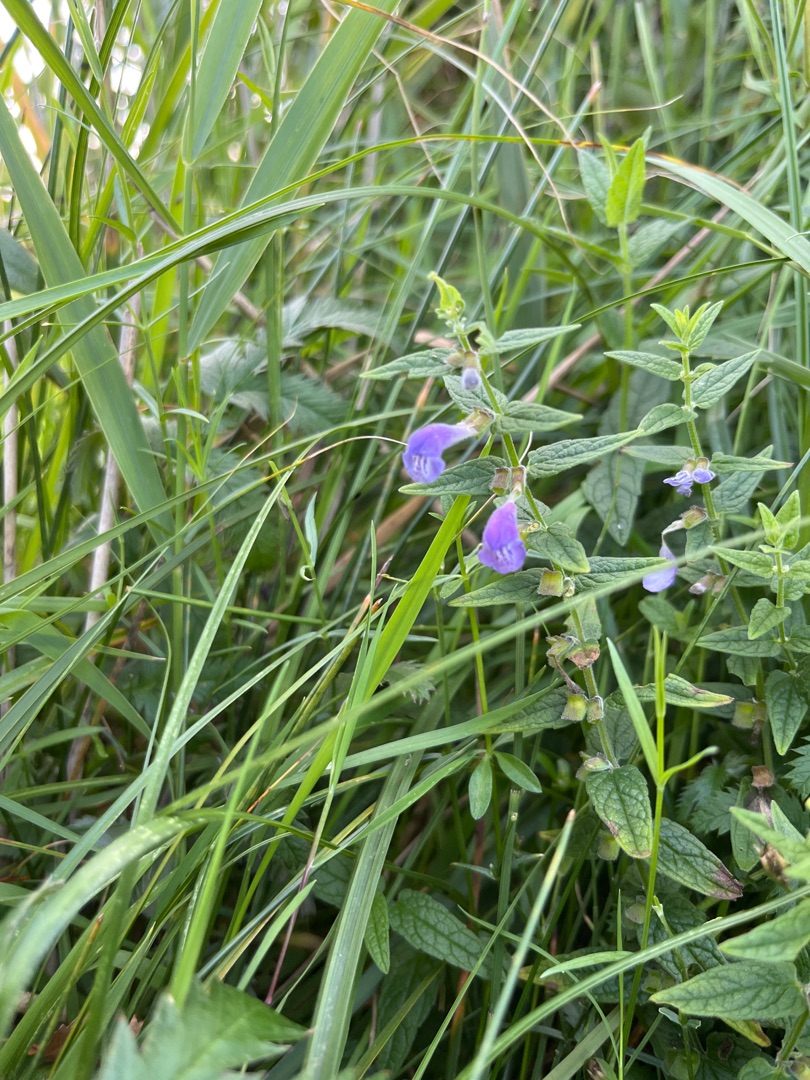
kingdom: Plantae
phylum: Tracheophyta
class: Magnoliopsida
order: Lamiales
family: Lamiaceae
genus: Scutellaria
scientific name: Scutellaria galericulata
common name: Almindelig skjolddrager
